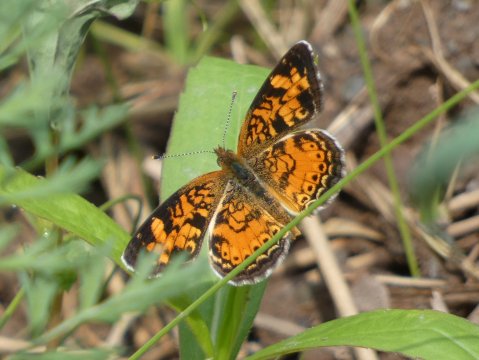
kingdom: Animalia
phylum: Arthropoda
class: Insecta
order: Lepidoptera
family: Nymphalidae
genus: Phyciodes
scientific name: Phyciodes tharos
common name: Pearl Crescent
